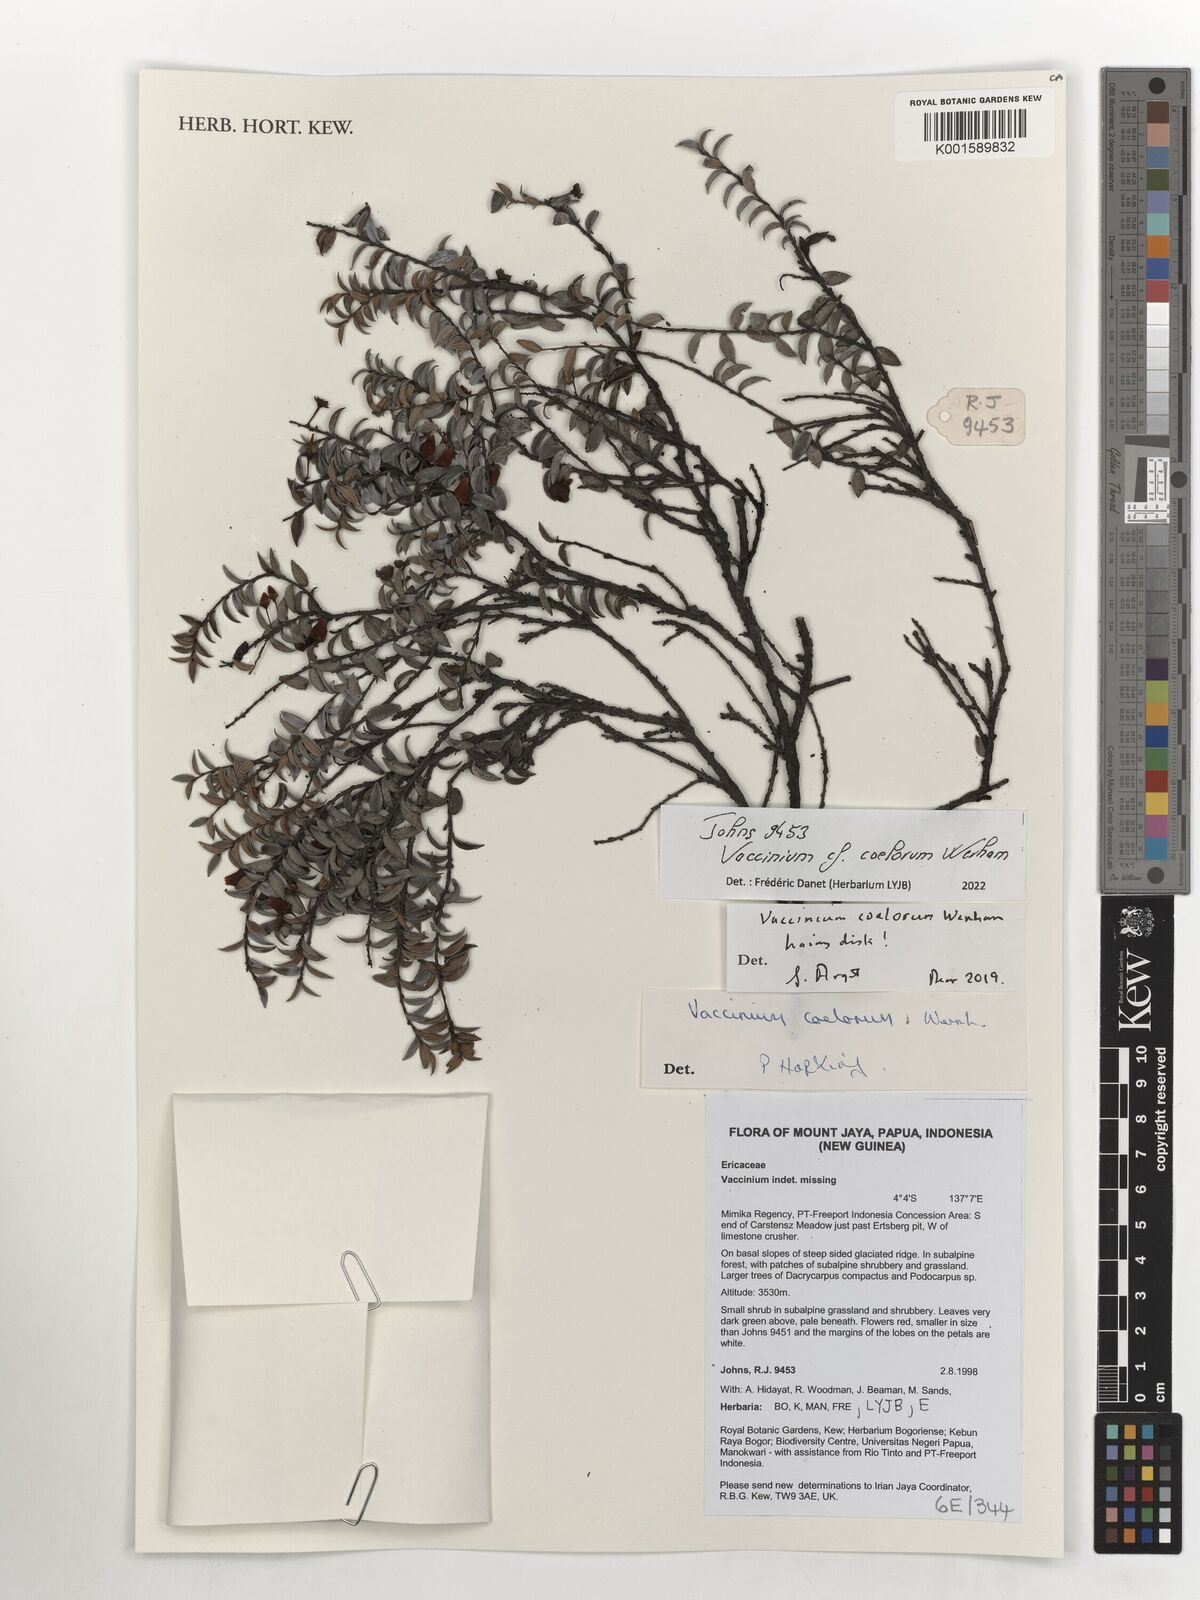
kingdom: Plantae
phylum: Tracheophyta
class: Magnoliopsida
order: Ericales
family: Ericaceae
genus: Vaccinium
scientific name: Vaccinium coelorum
